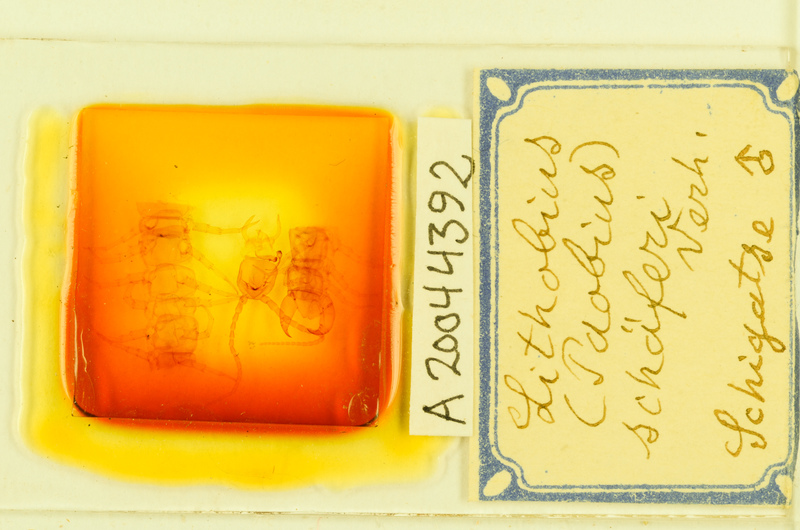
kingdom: Animalia
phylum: Arthropoda
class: Chilopoda
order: Lithobiomorpha
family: Lithobiidae
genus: Lithobius
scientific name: Lithobius schaeferi
